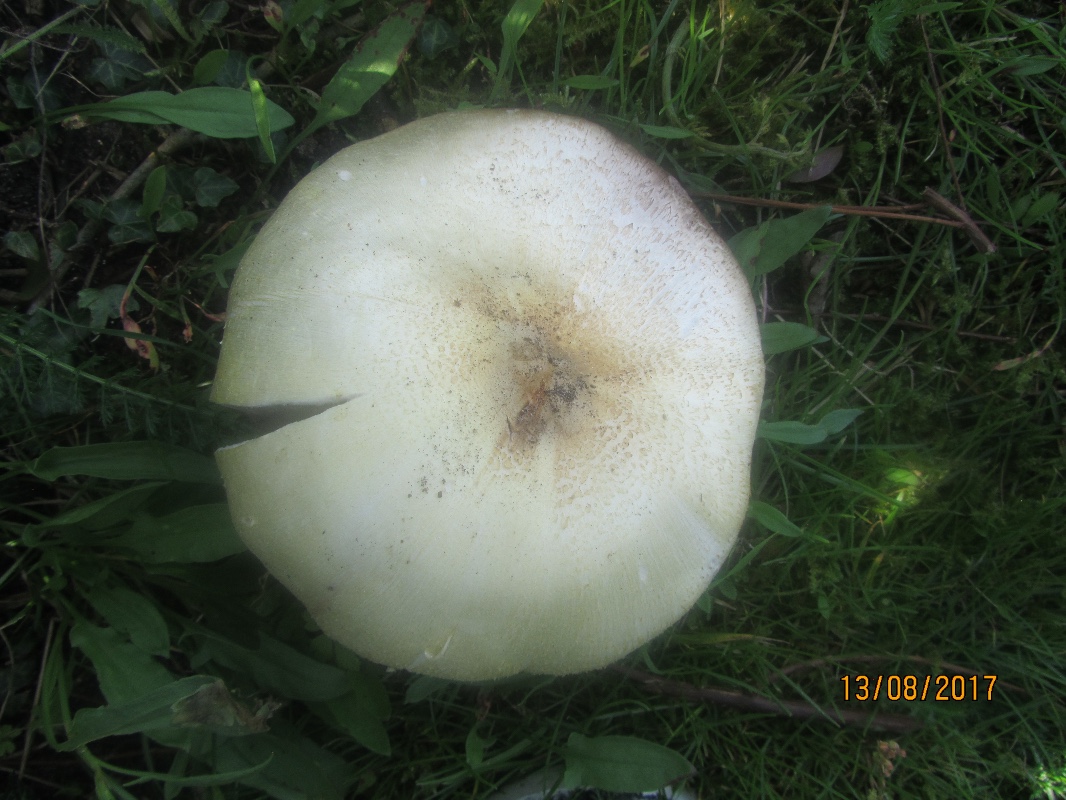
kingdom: Fungi
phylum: Basidiomycota
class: Agaricomycetes
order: Agaricales
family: Agaricaceae
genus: Agaricus
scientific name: Agaricus arvensis
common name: ager-champignon
